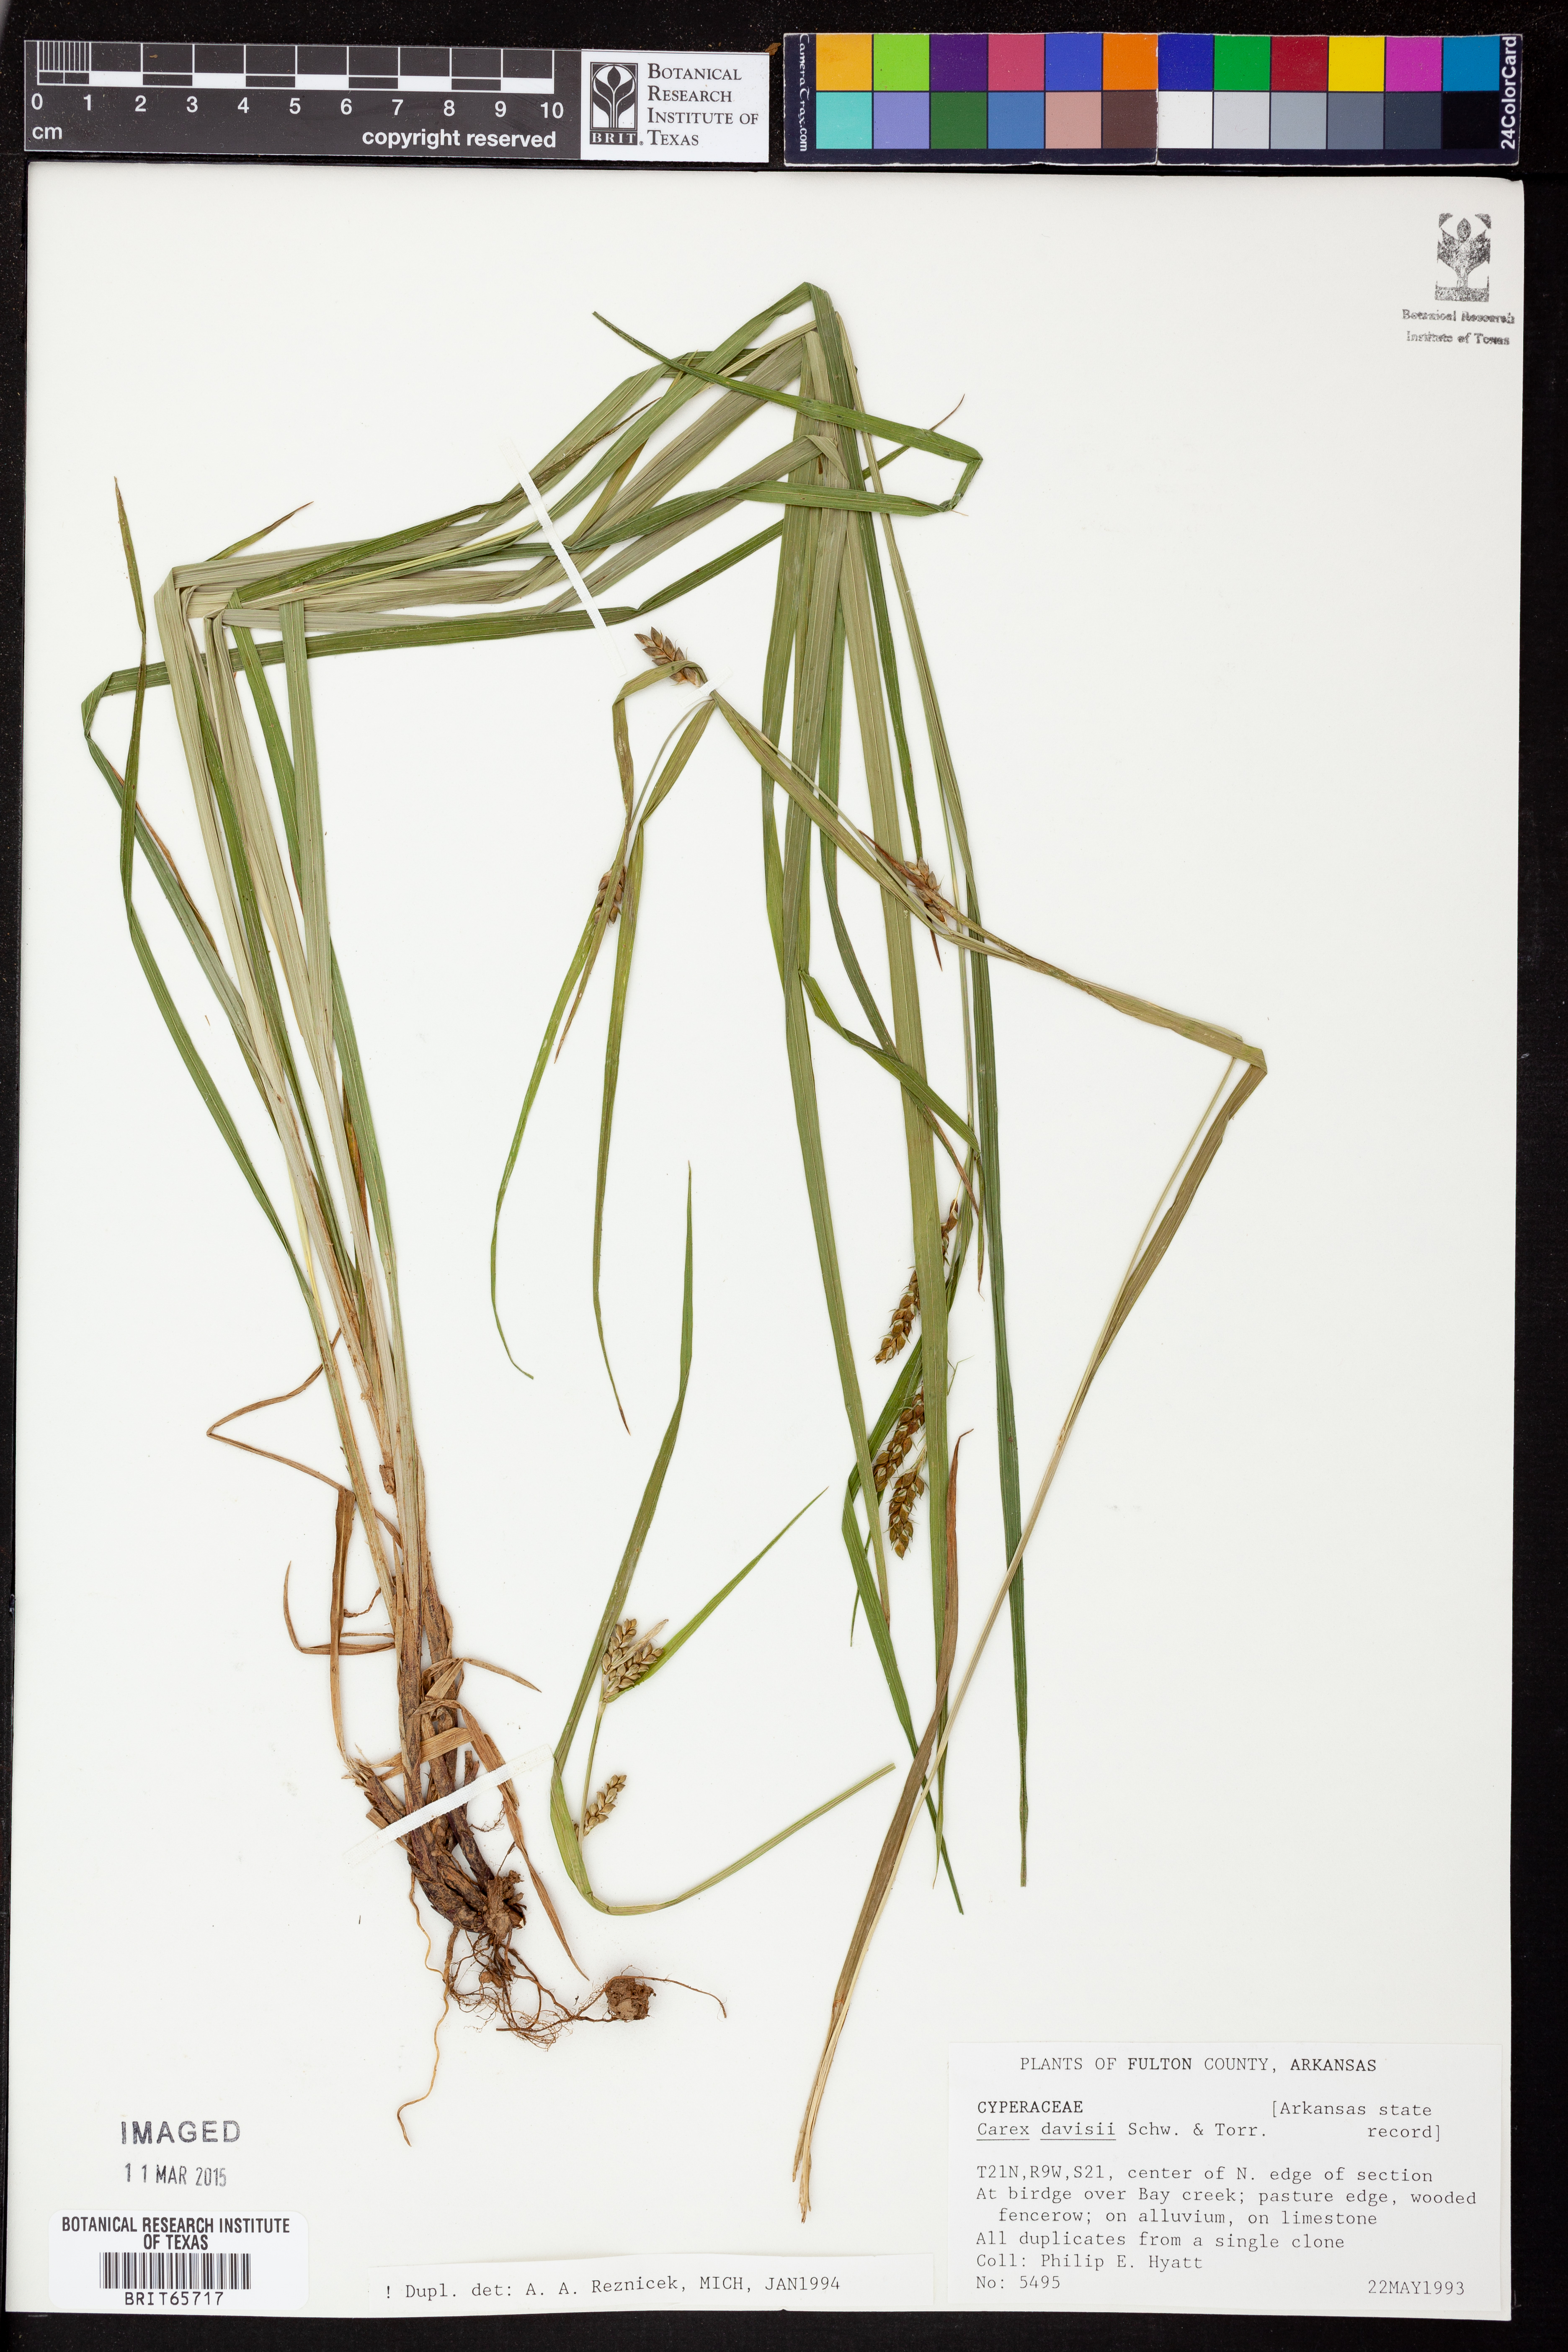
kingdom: Plantae
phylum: Tracheophyta
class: Liliopsida
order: Poales
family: Cyperaceae
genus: Carex
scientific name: Carex davisii
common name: Davis' sedge
